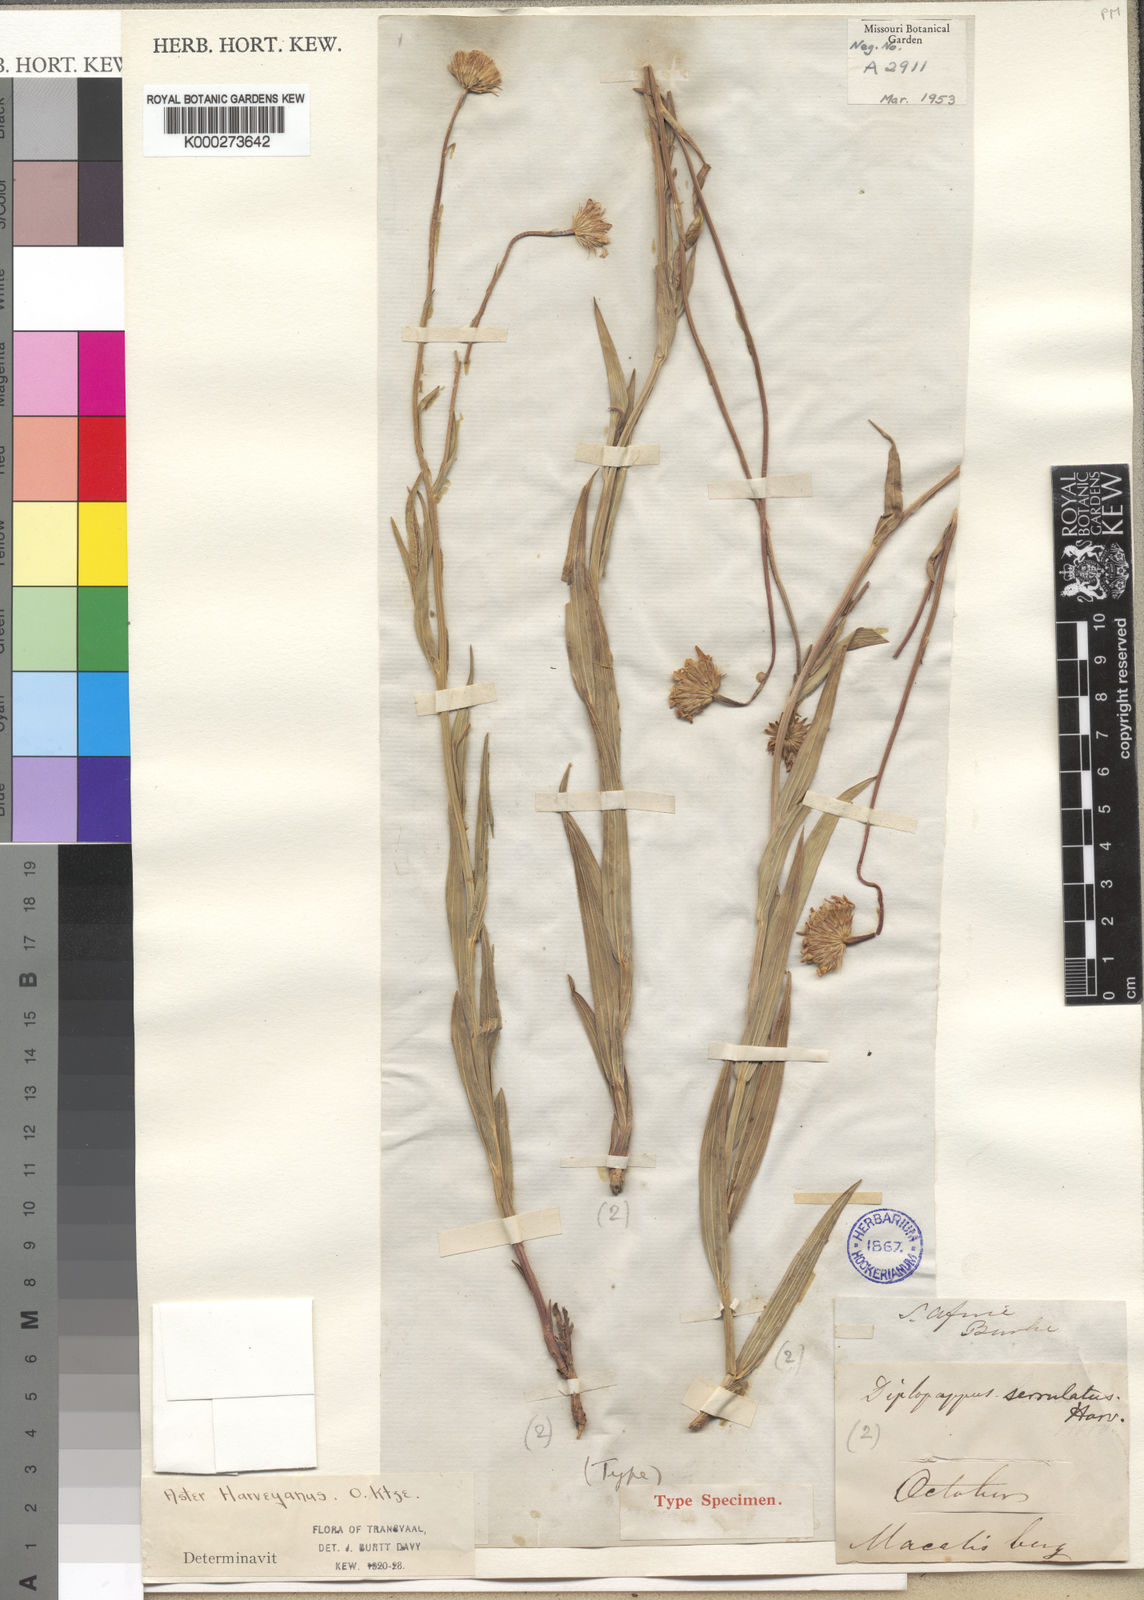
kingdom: Plantae
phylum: Tracheophyta
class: Magnoliopsida
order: Asterales
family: Asteraceae
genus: Afroaster
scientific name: Afroaster serrulatus
